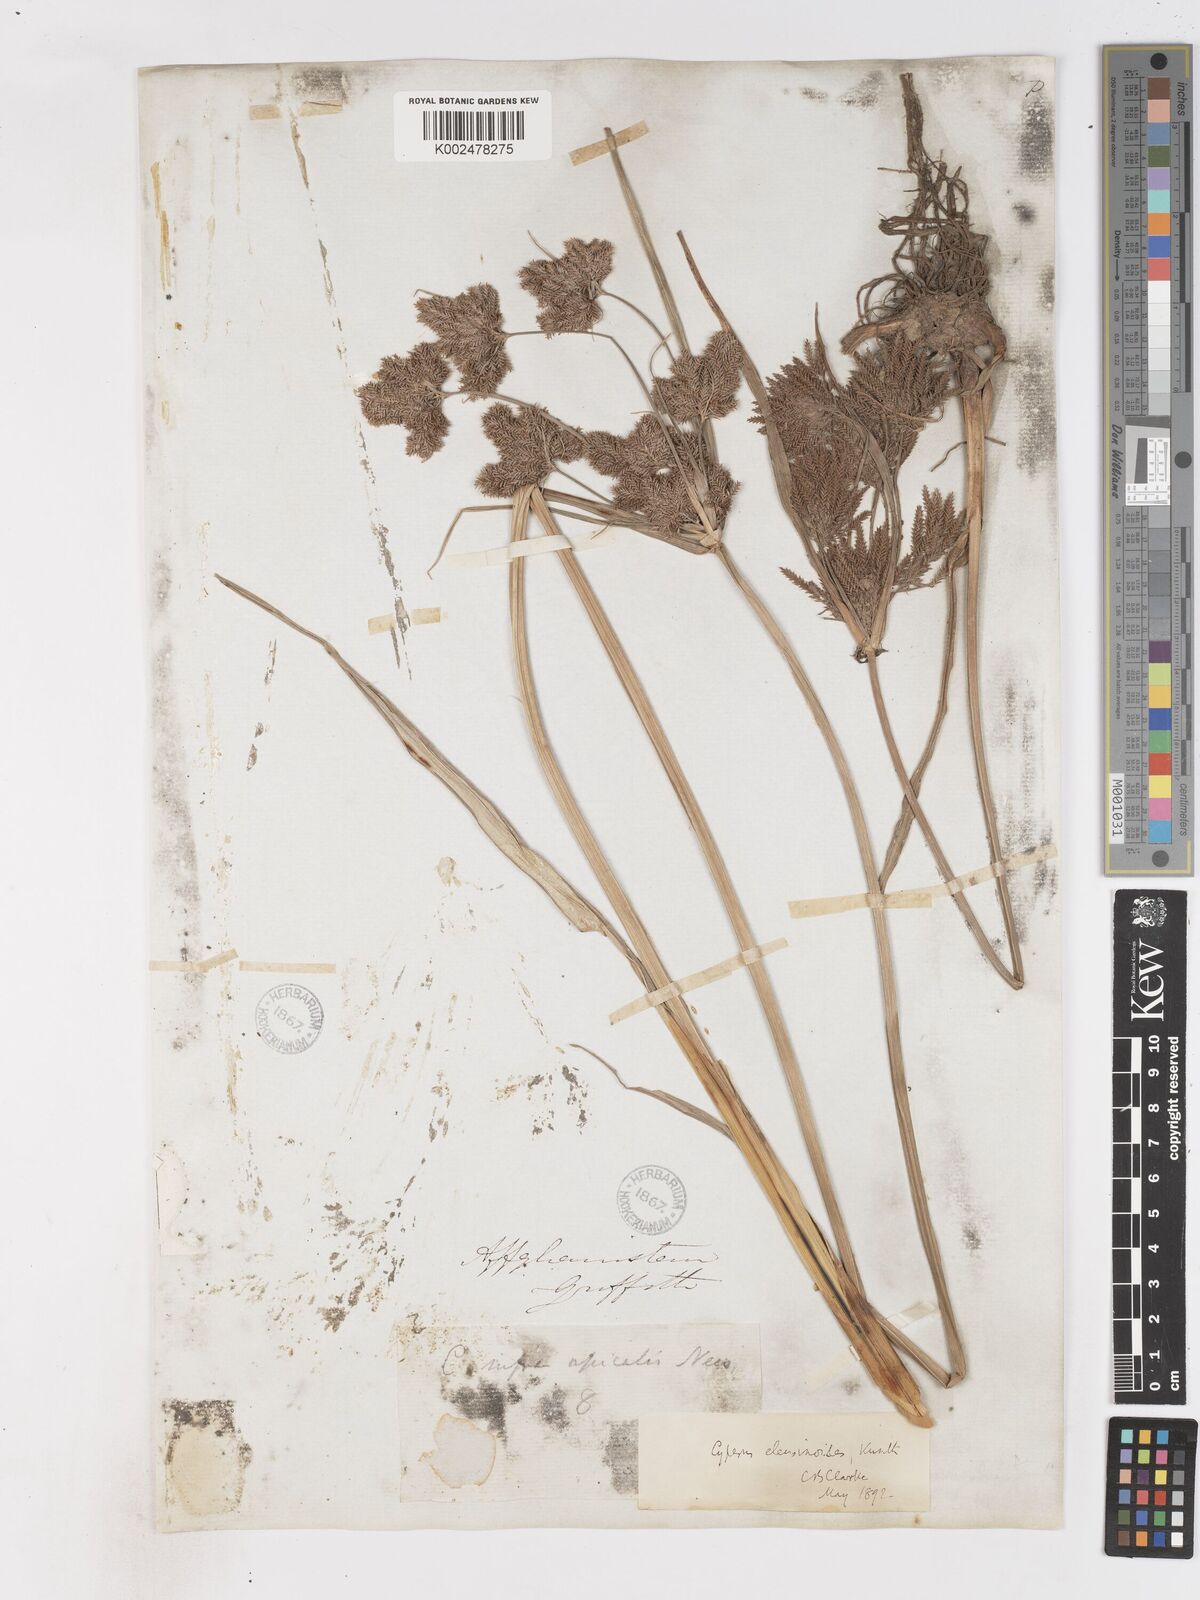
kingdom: Plantae
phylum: Tracheophyta
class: Liliopsida
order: Poales
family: Cyperaceae
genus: Cyperus
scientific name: Cyperus nutans
